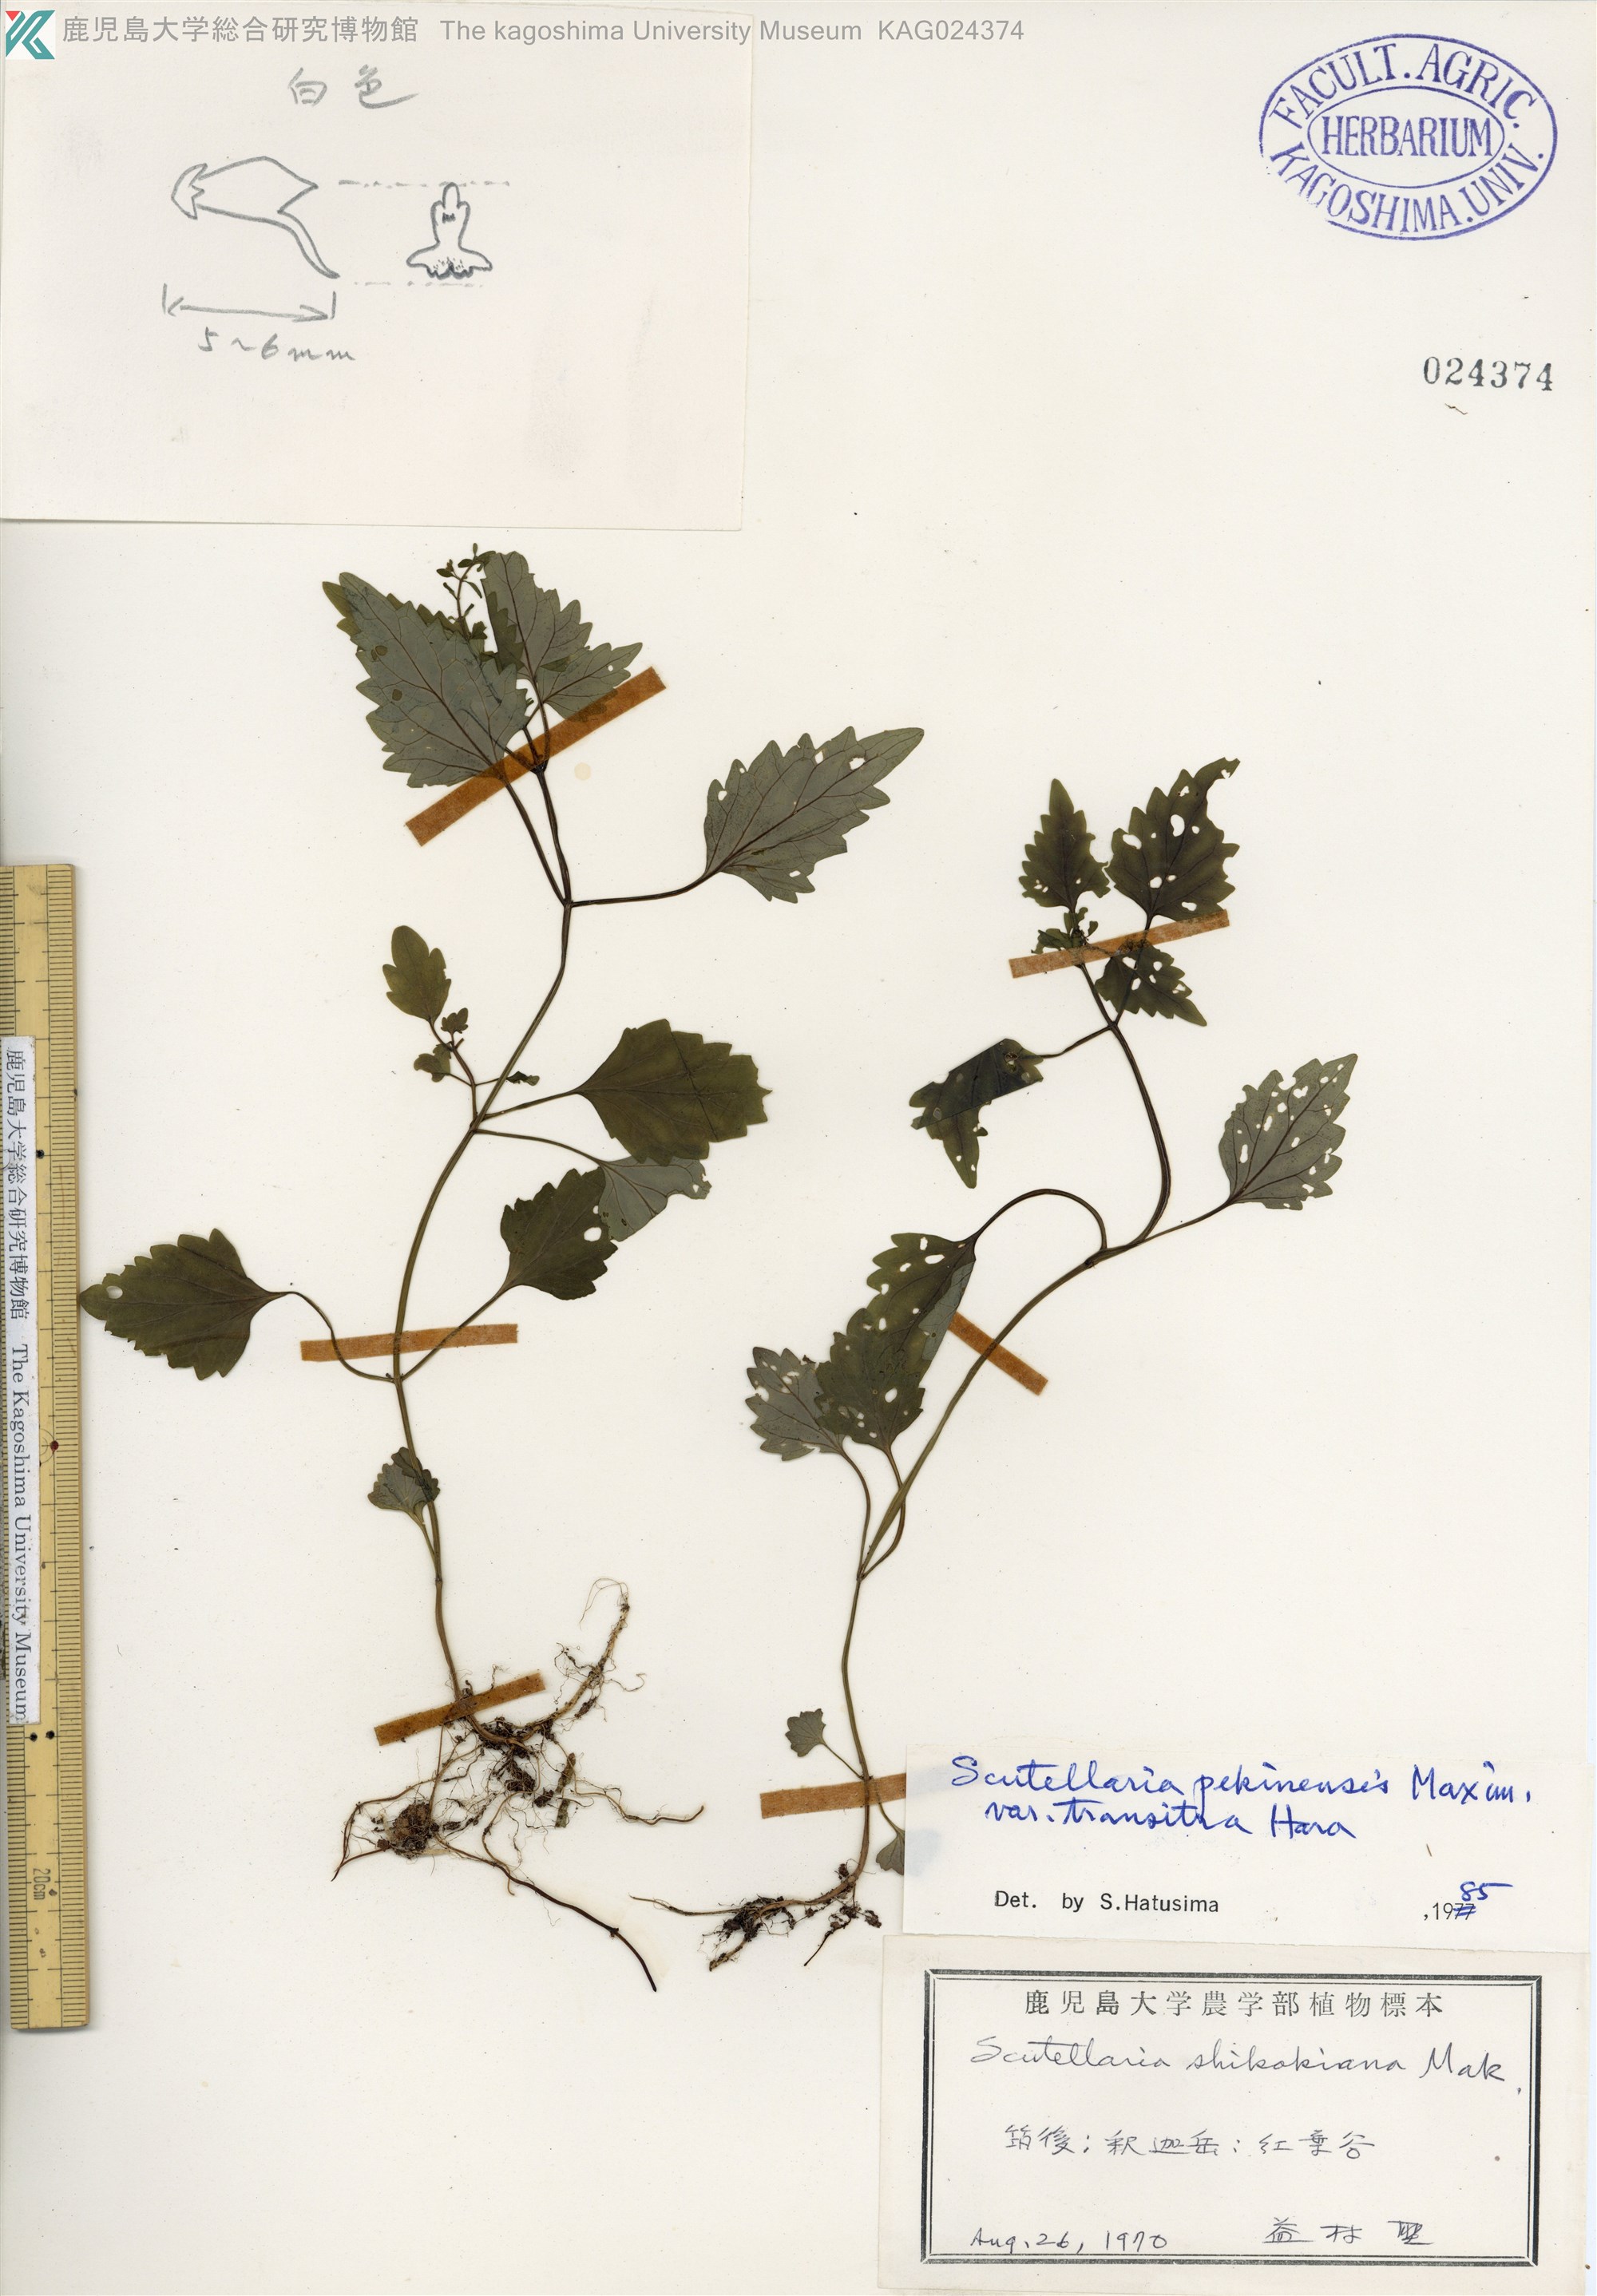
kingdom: Plantae
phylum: Tracheophyta
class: Magnoliopsida
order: Lamiales
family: Lamiaceae
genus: Scutellaria
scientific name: Scutellaria pekinensis
